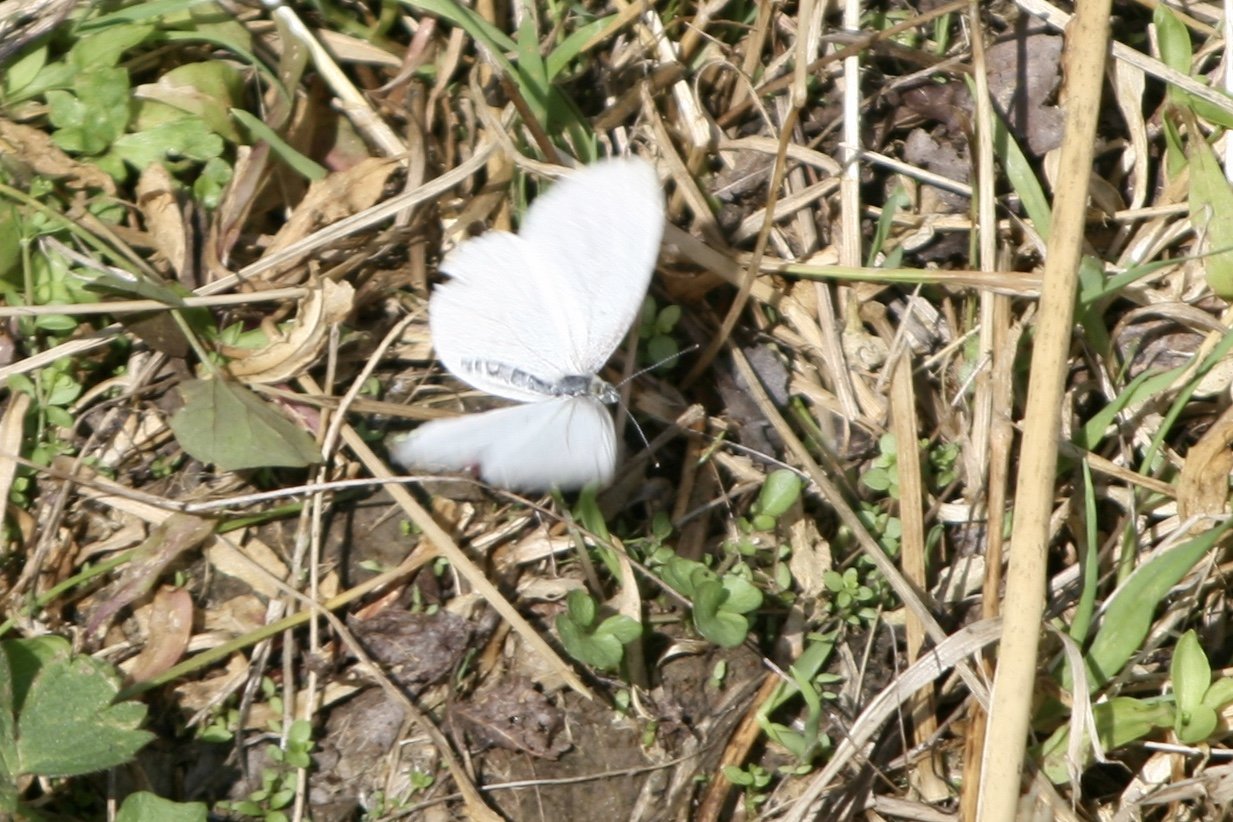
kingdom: Animalia
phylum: Arthropoda
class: Insecta
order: Lepidoptera
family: Pieridae
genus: Pieris
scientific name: Pieris oleracea
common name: Mustard White
